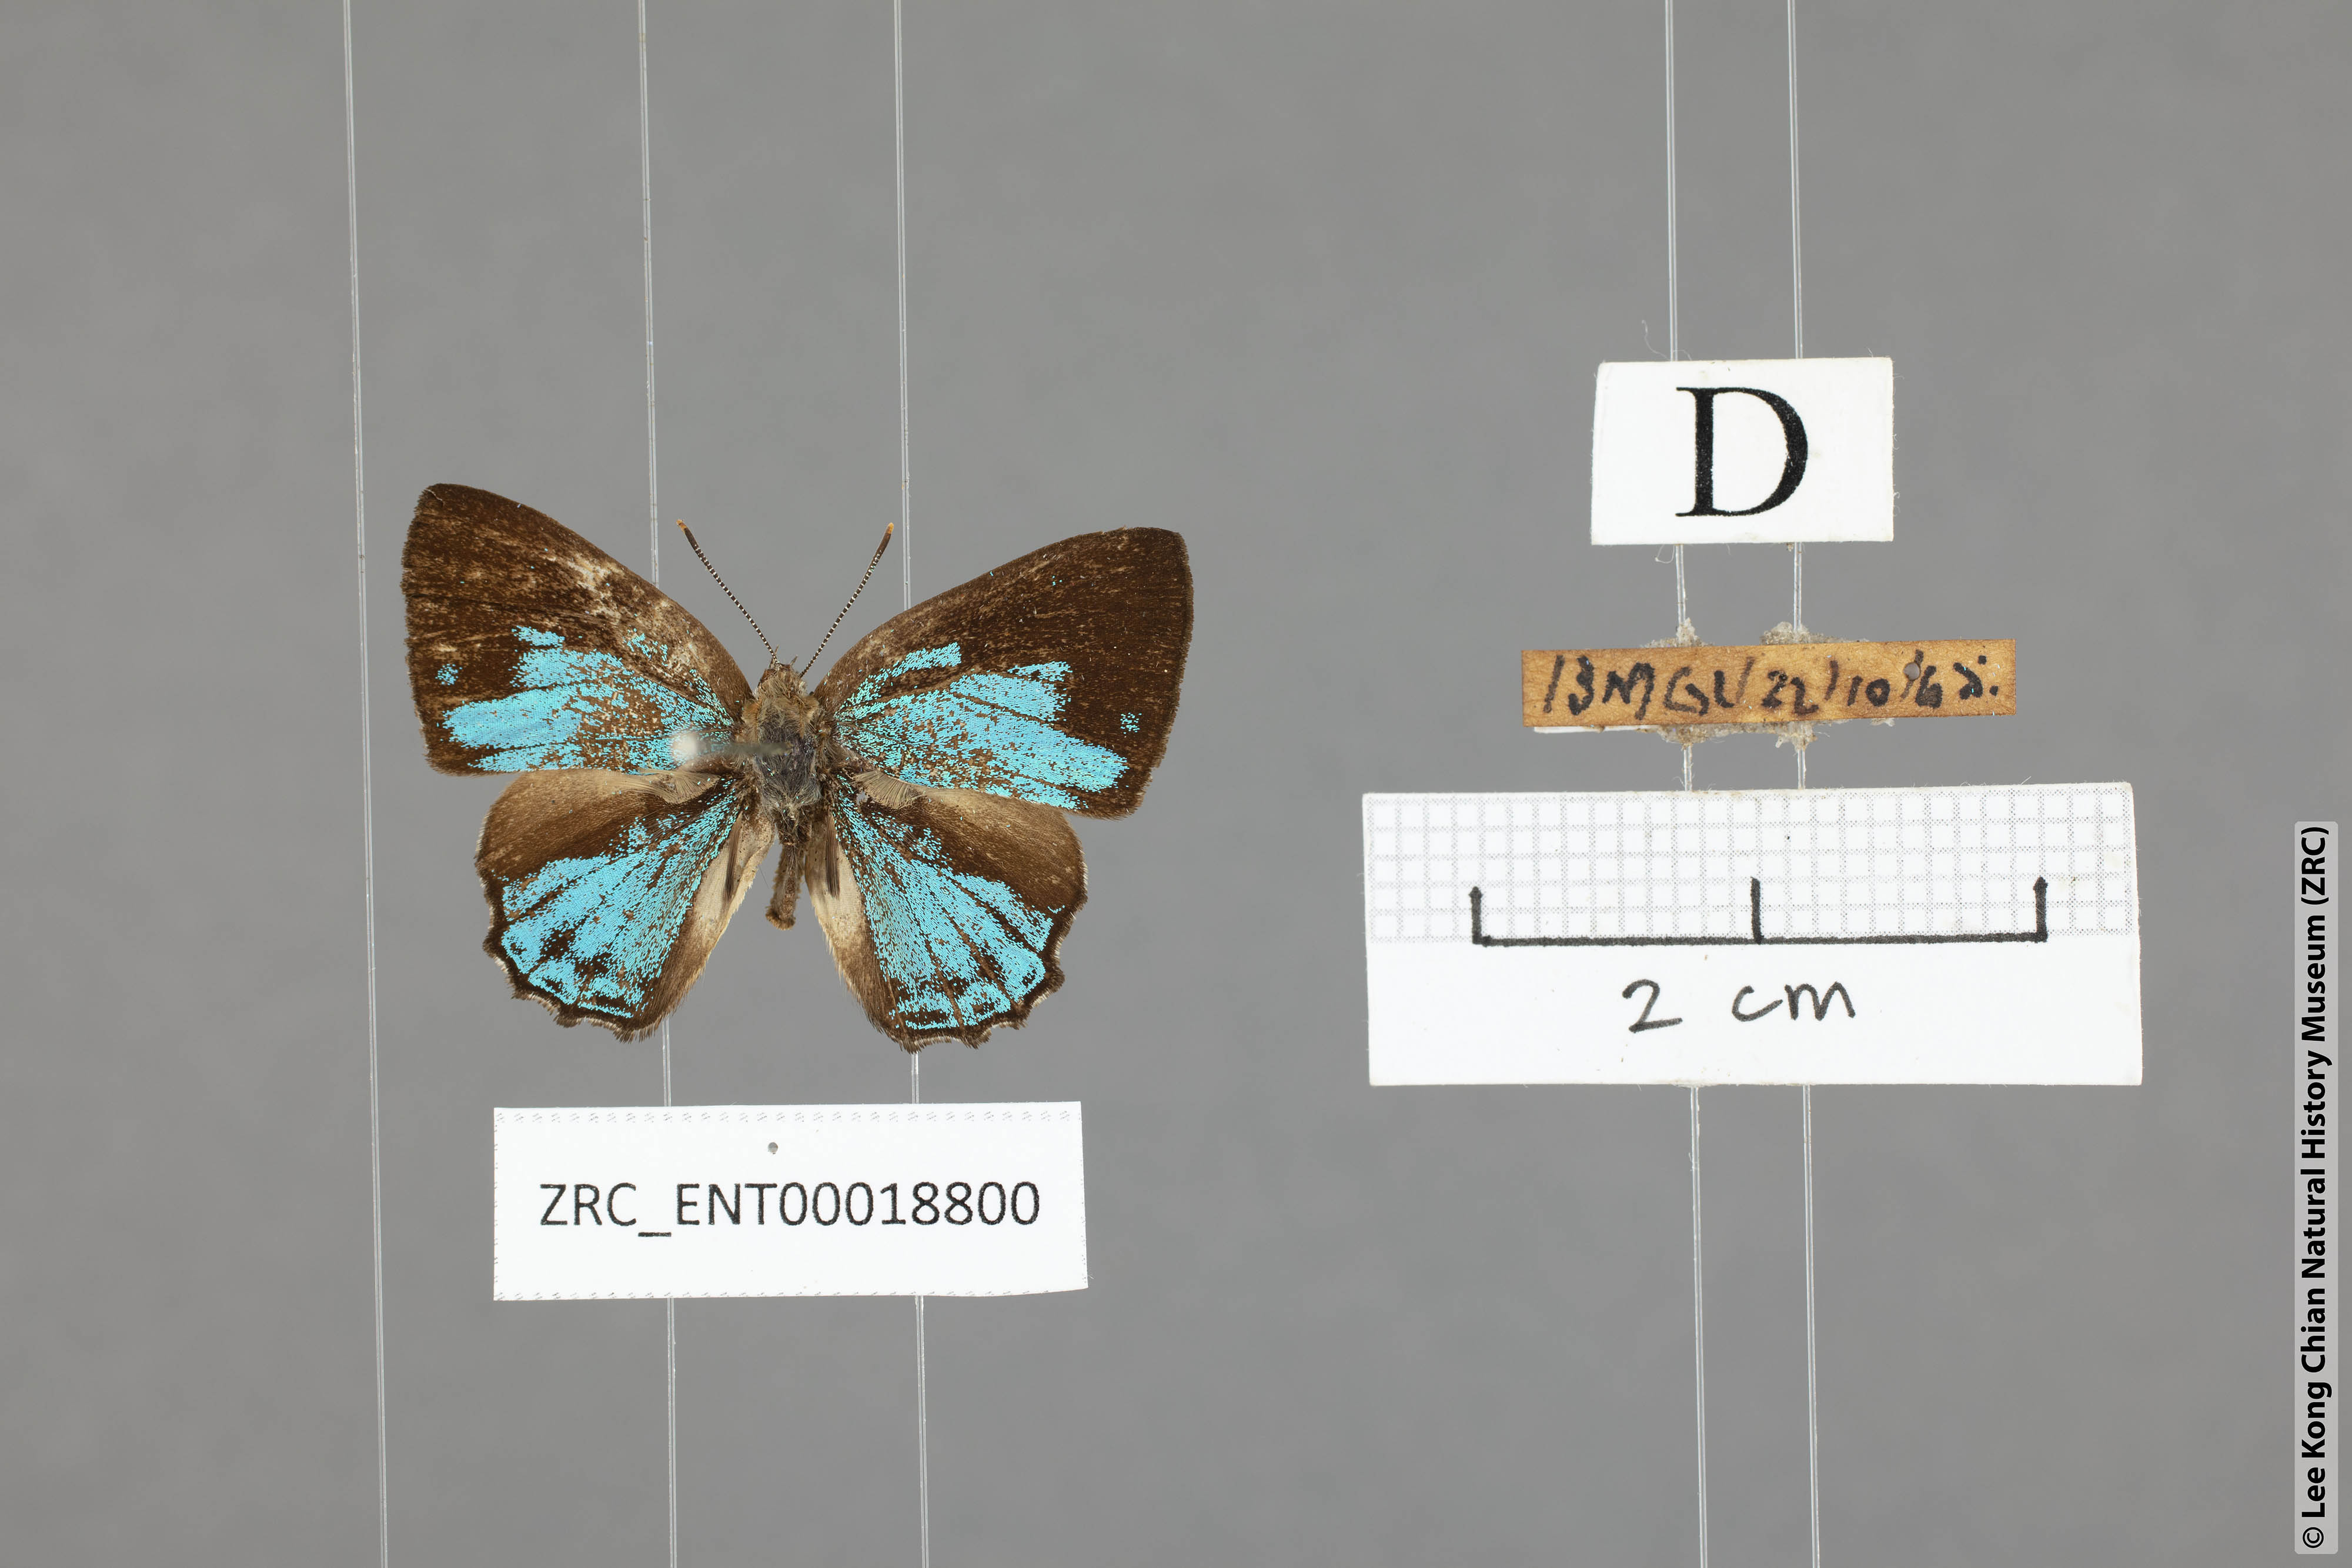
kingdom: Animalia
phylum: Arthropoda
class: Insecta
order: Lepidoptera
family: Lycaenidae
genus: Poritia
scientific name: Poritia pleurata
